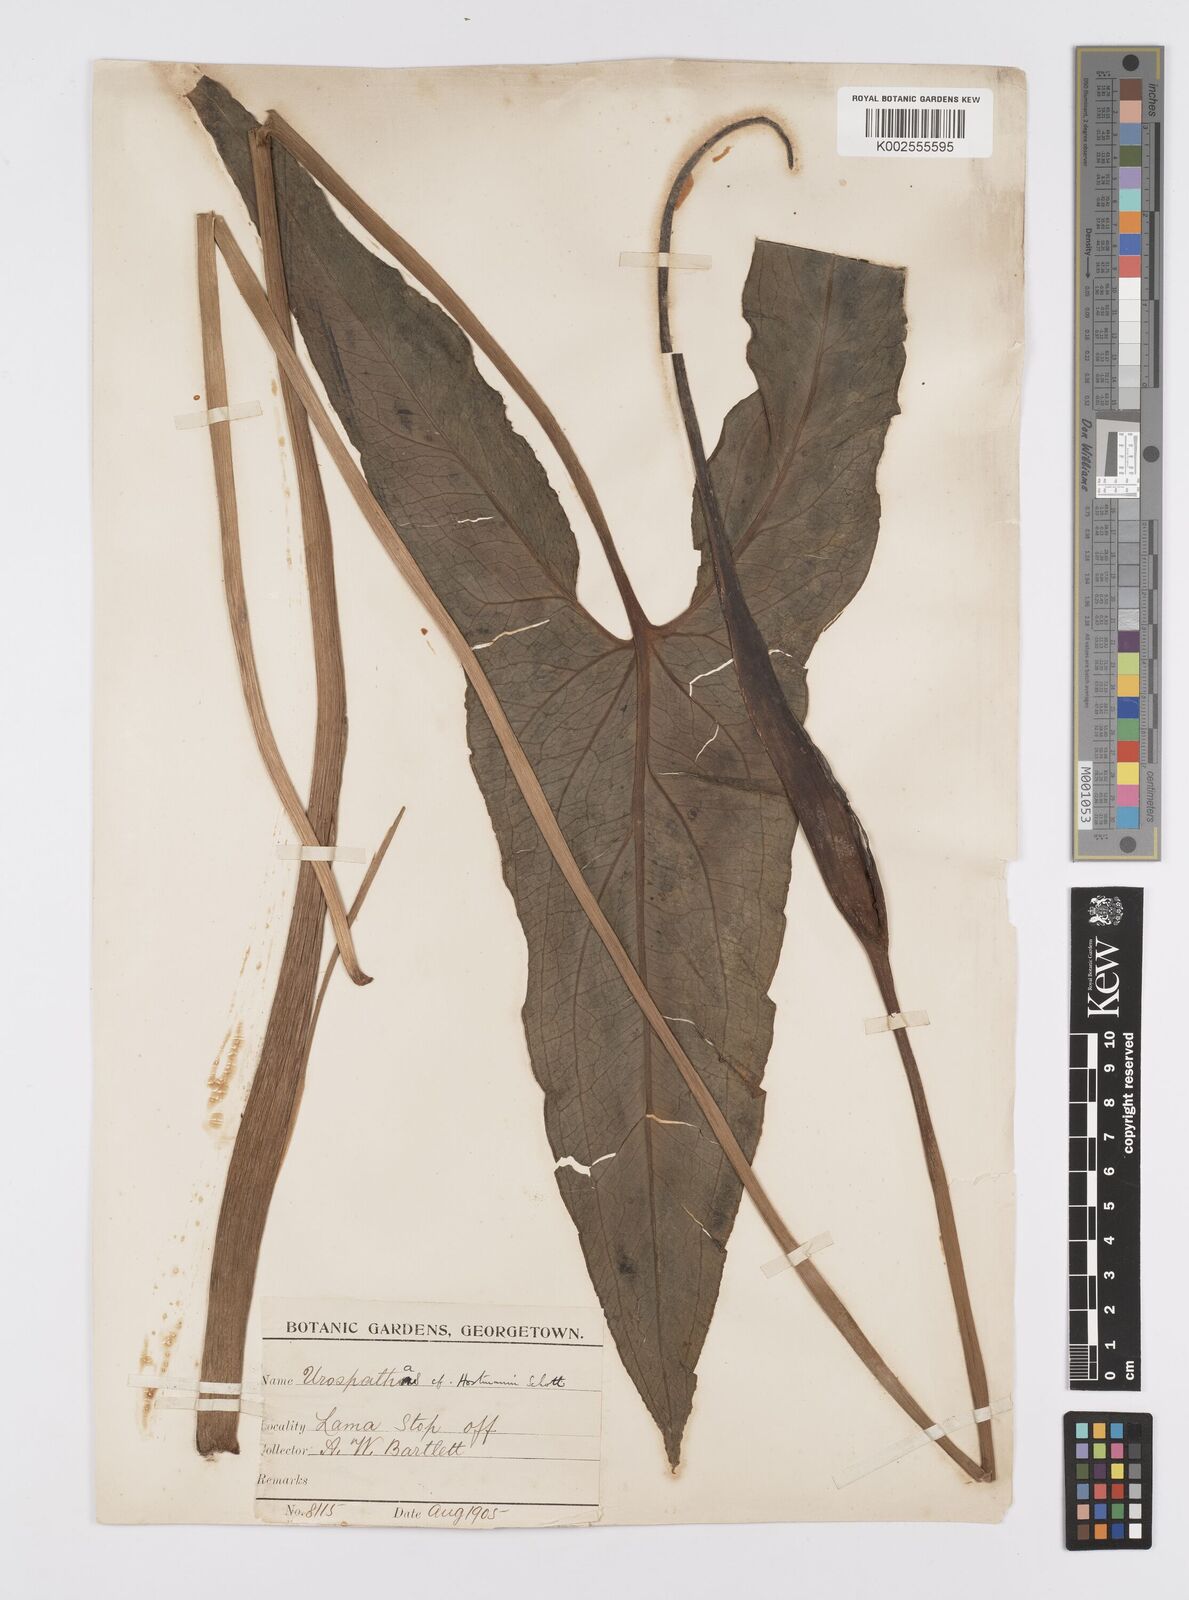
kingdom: Plantae
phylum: Tracheophyta
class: Liliopsida
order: Alismatales
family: Araceae
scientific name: Araceae
